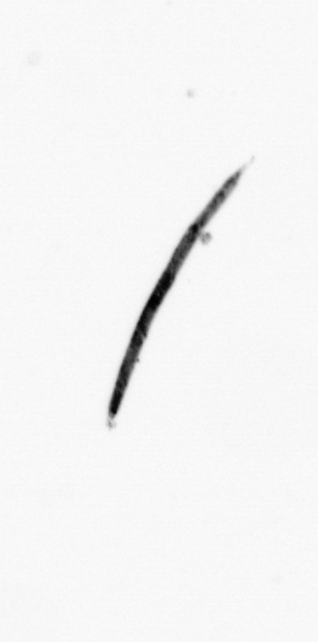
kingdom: Bacteria
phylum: Cyanobacteria
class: Cyanobacteriia
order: Cyanobacteriales
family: Microcoleaceae
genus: Trichodesmium
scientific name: Trichodesmium
